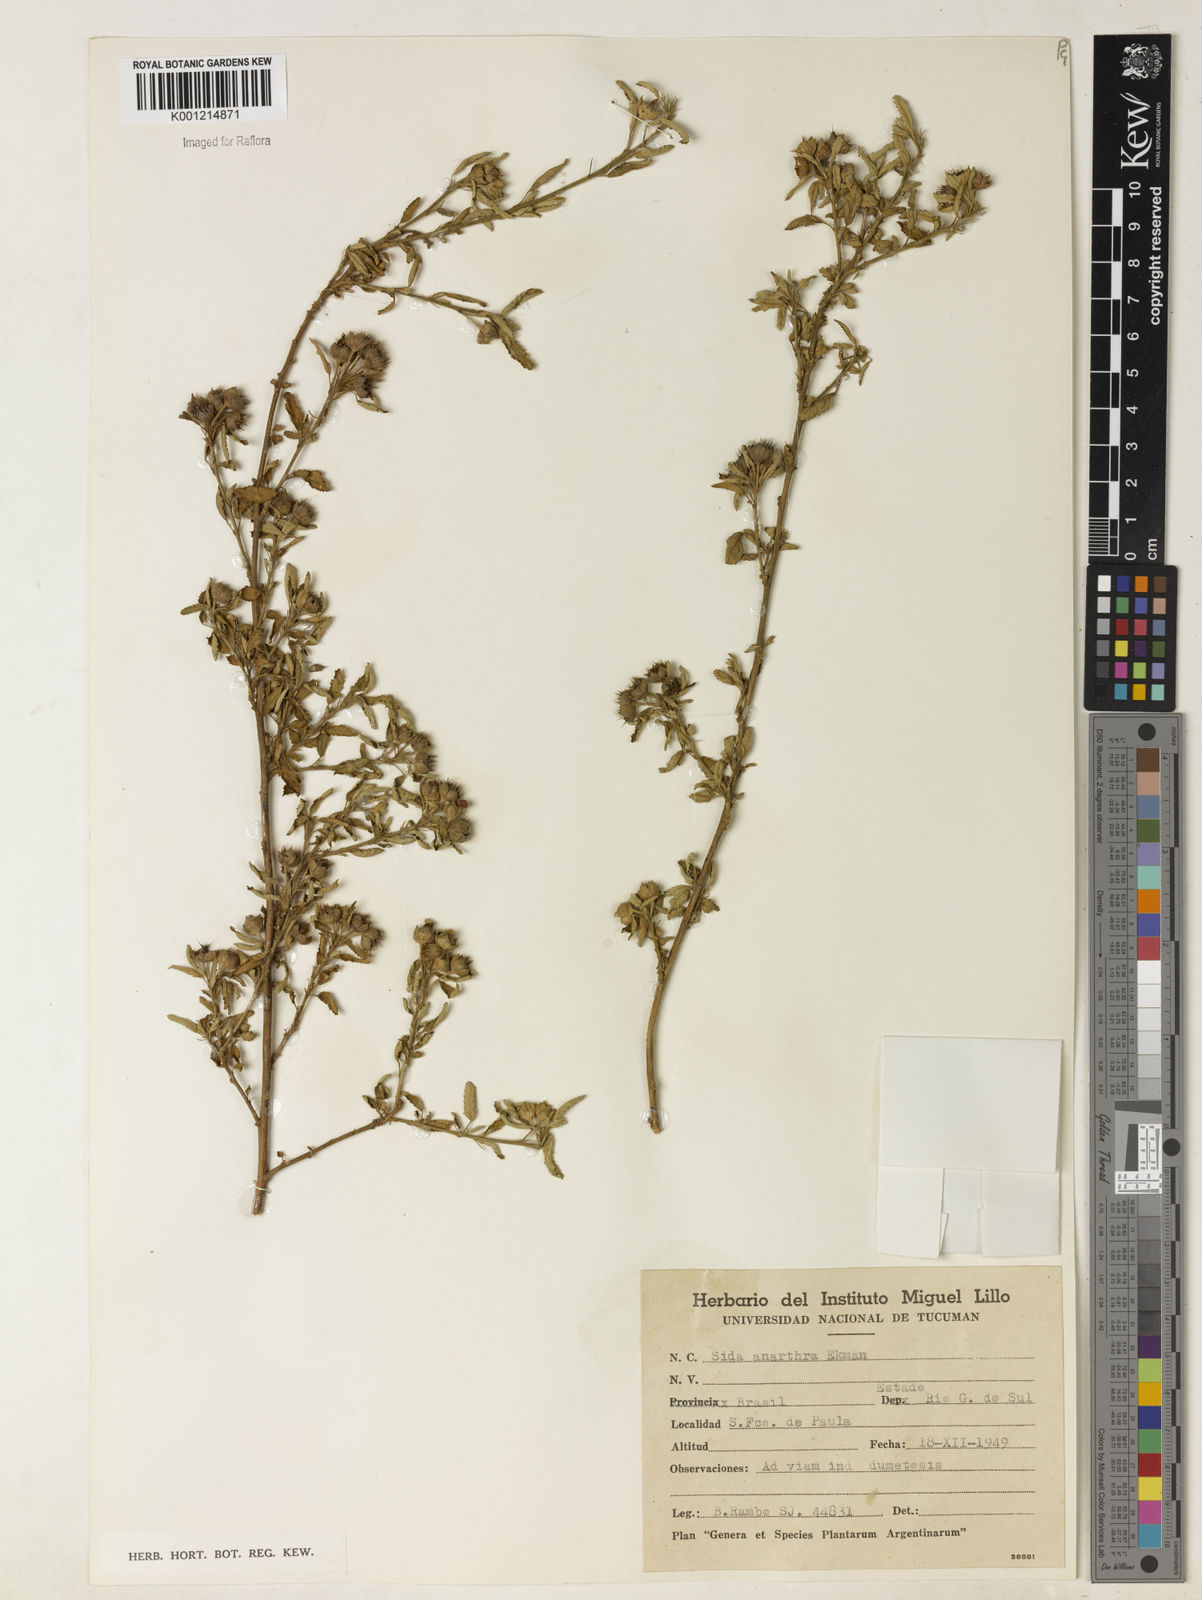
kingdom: Plantae
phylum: Tracheophyta
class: Magnoliopsida
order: Malvales
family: Malvaceae
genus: Sida
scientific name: Sida potentilloides
